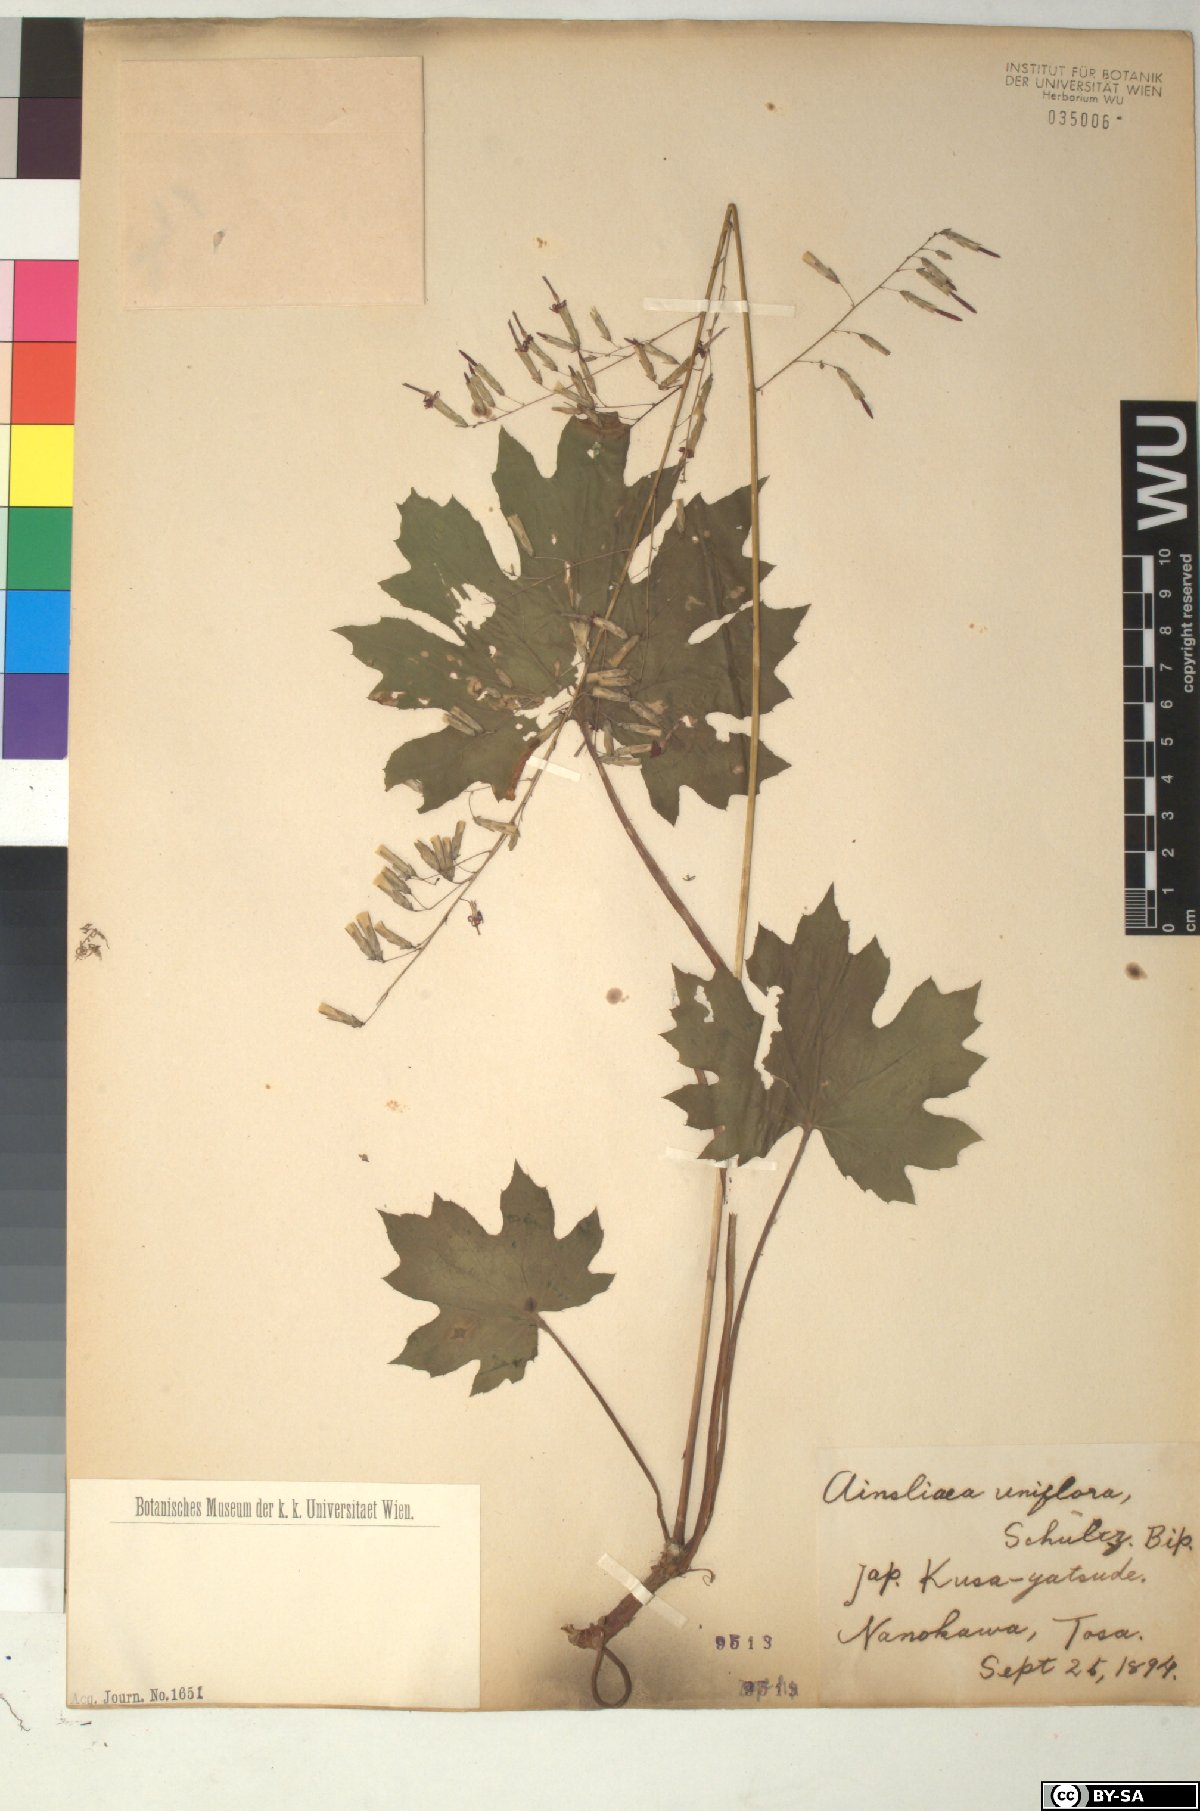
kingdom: Plantae
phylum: Tracheophyta
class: Magnoliopsida
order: Asterales
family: Asteraceae
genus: Ainsliaea
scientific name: Ainsliaea uniflora
